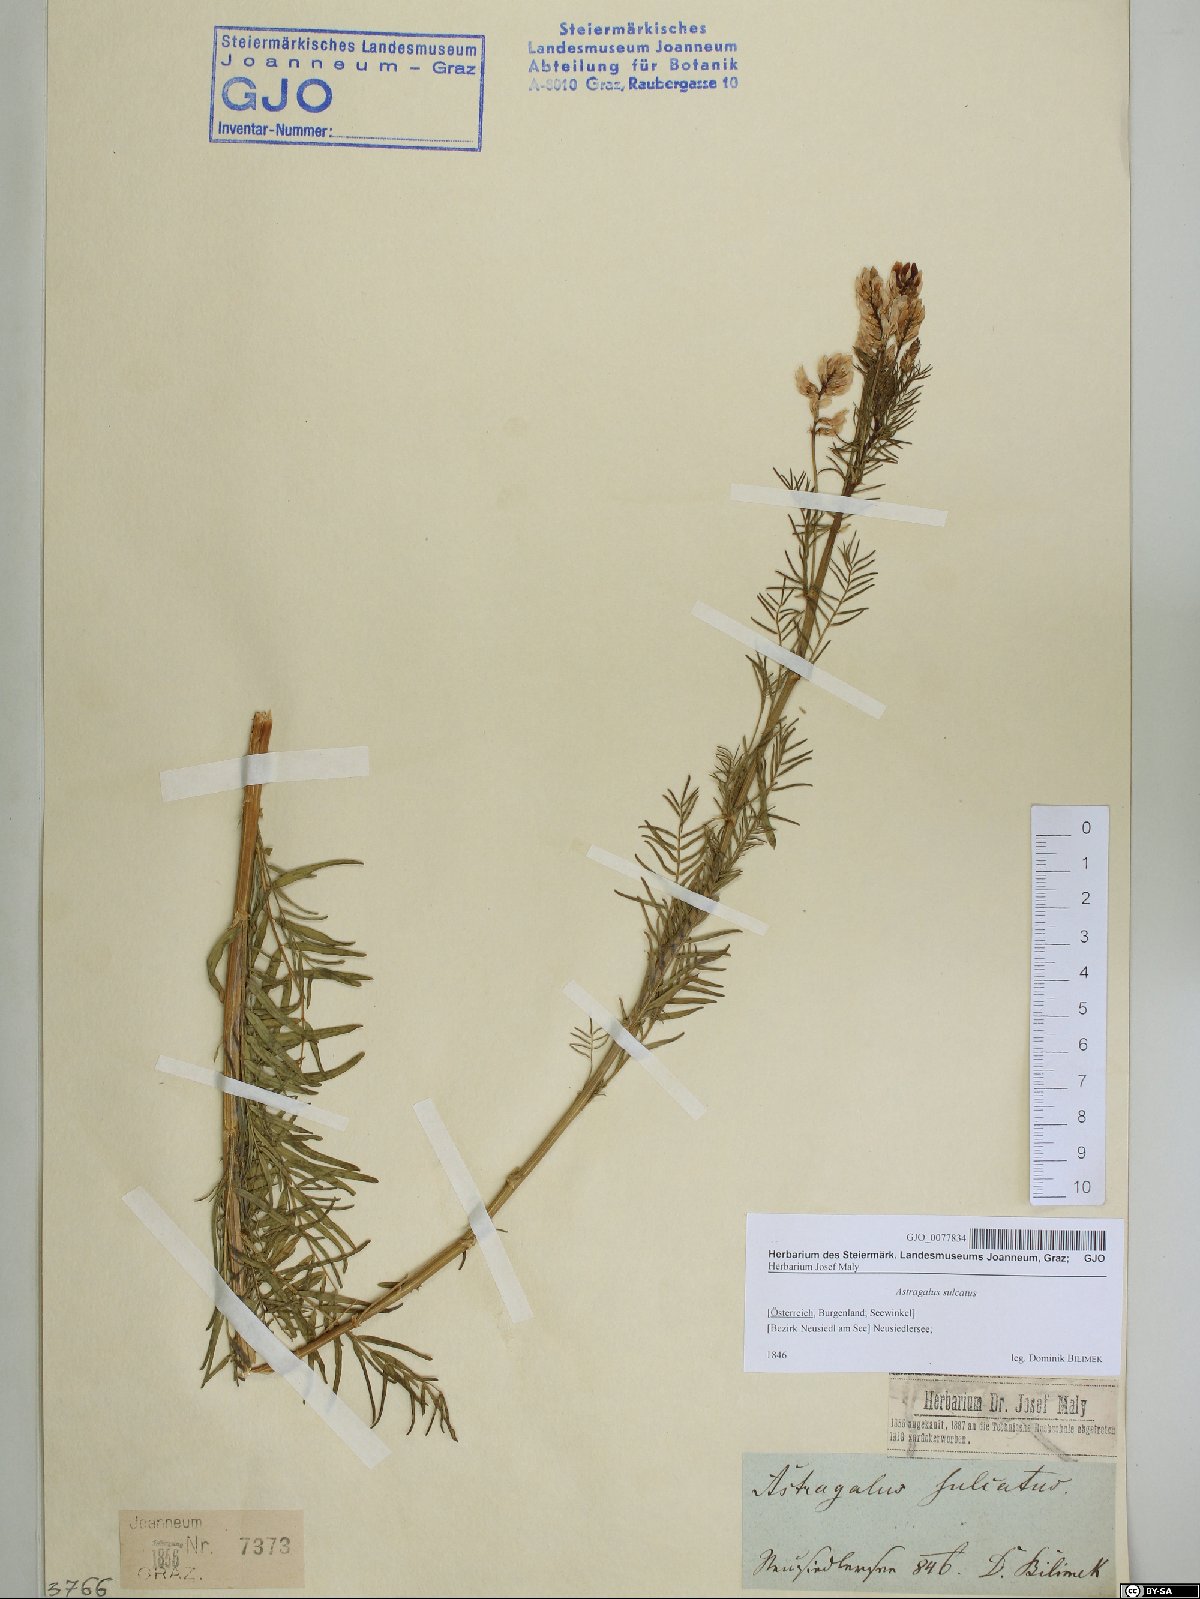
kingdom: Plantae
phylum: Tracheophyta
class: Magnoliopsida
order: Fabales
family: Fabaceae
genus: Astragalus
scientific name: Astragalus sulcatus
